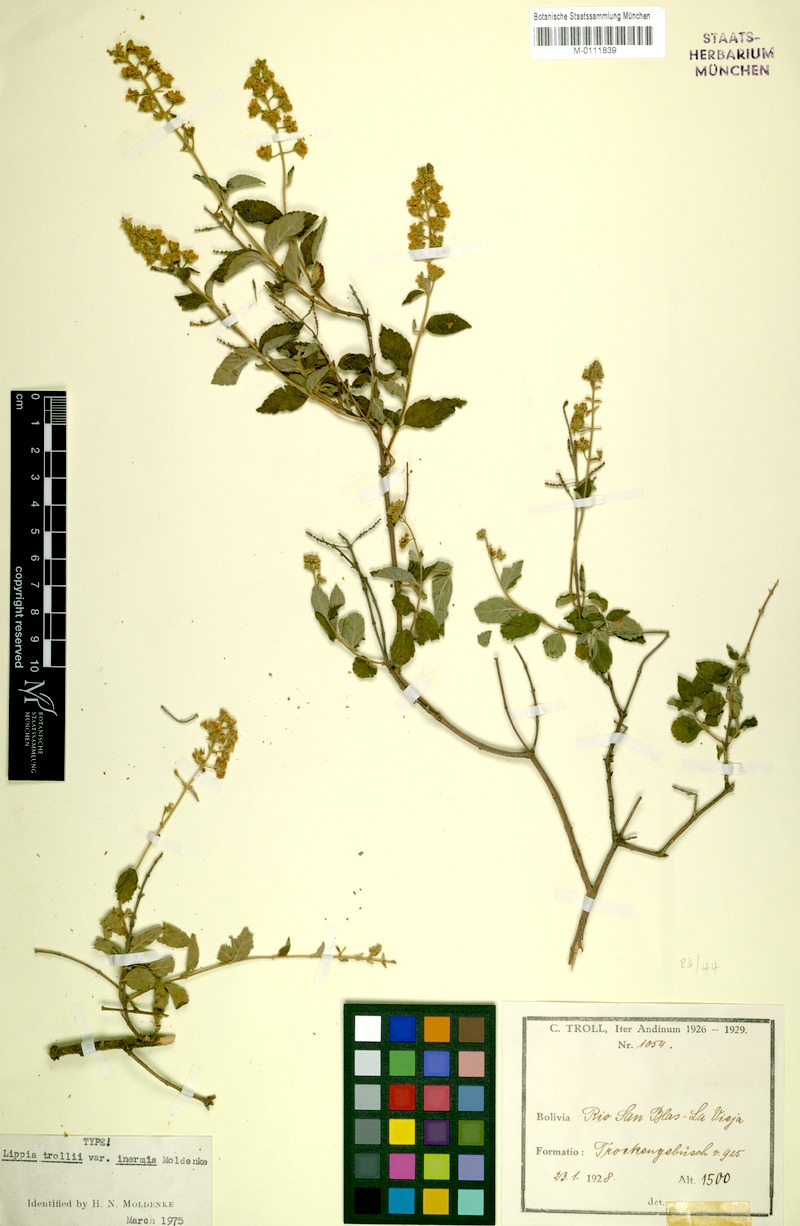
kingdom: Plantae
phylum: Tracheophyta
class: Magnoliopsida
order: Lamiales
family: Verbenaceae
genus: Lippia
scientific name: Lippia trollii
